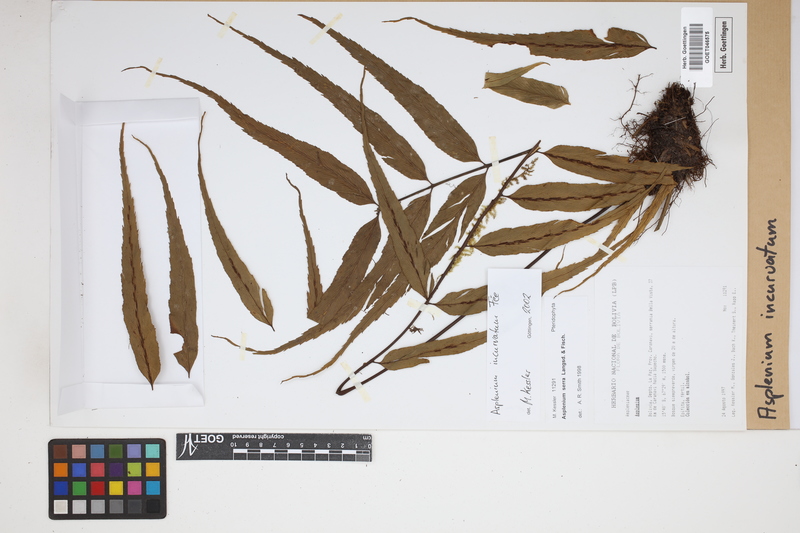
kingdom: Plantae
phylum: Tracheophyta
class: Polypodiopsida
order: Polypodiales
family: Aspleniaceae
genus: Asplenium
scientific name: Asplenium serra
